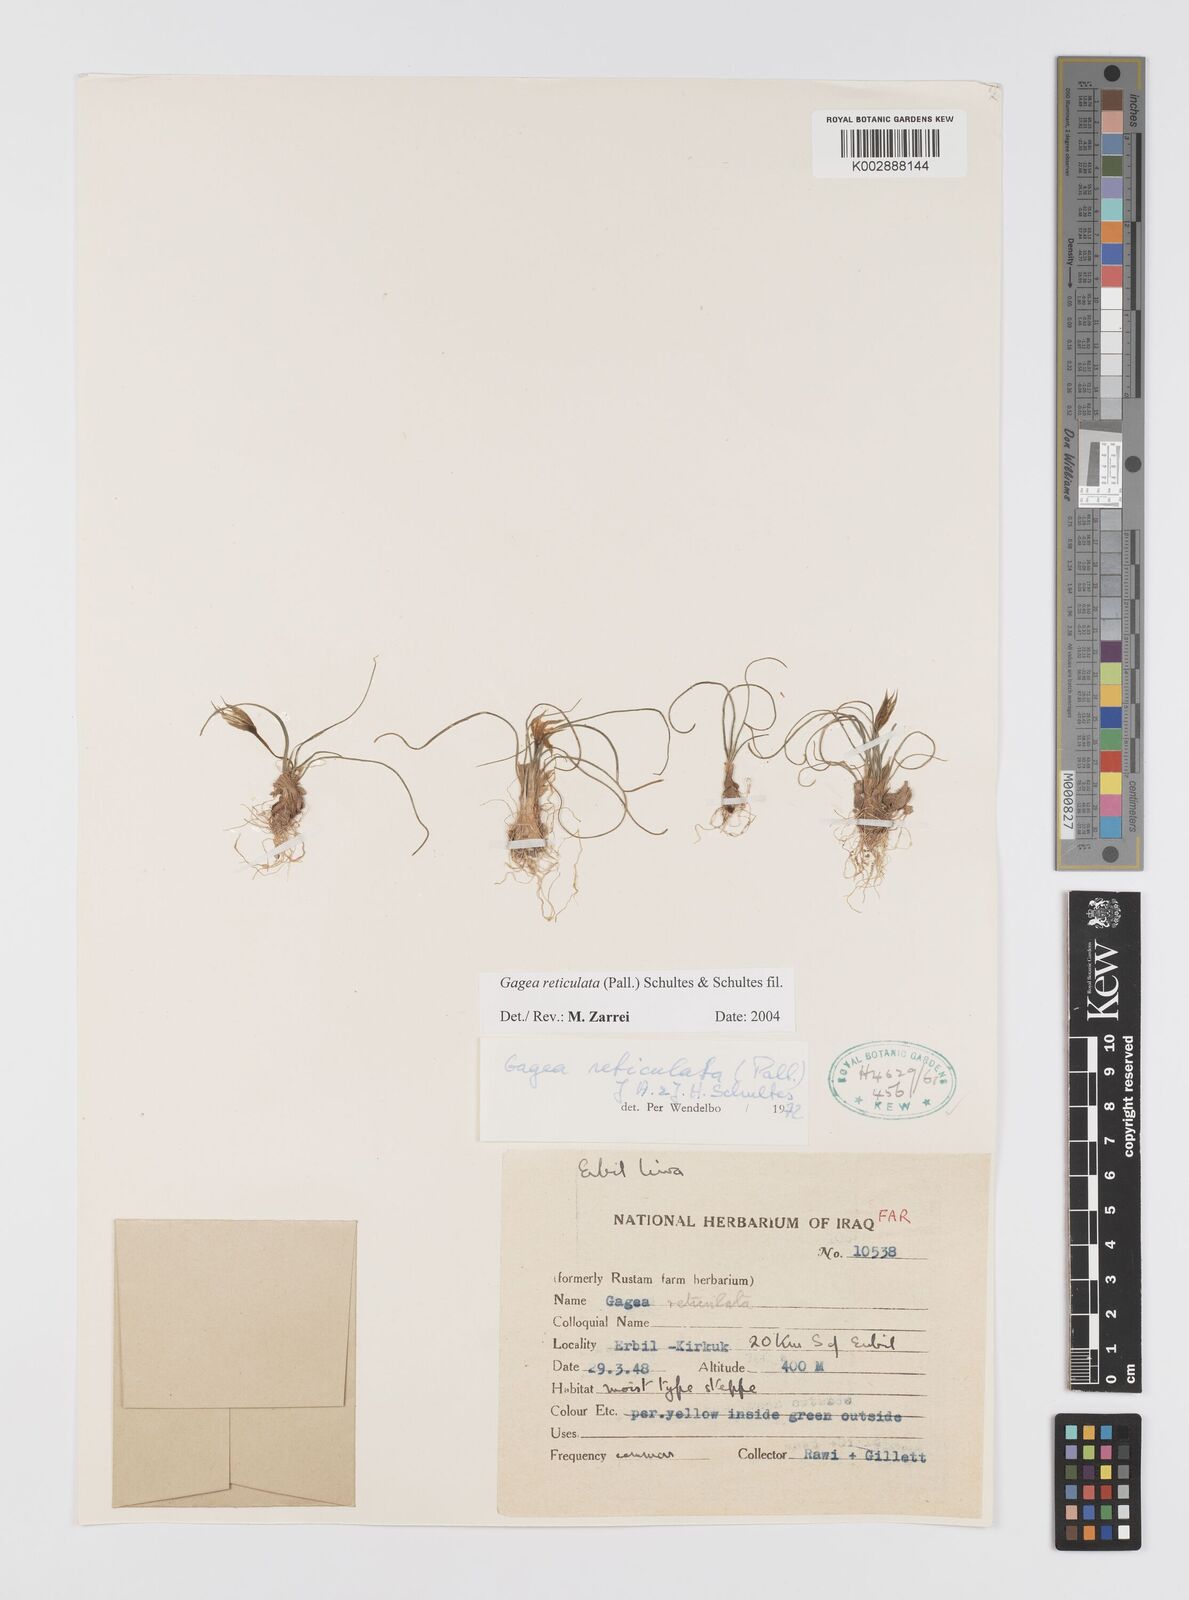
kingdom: Plantae
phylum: Tracheophyta
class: Liliopsida
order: Liliales
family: Liliaceae
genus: Gagea
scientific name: Gagea reticulata
